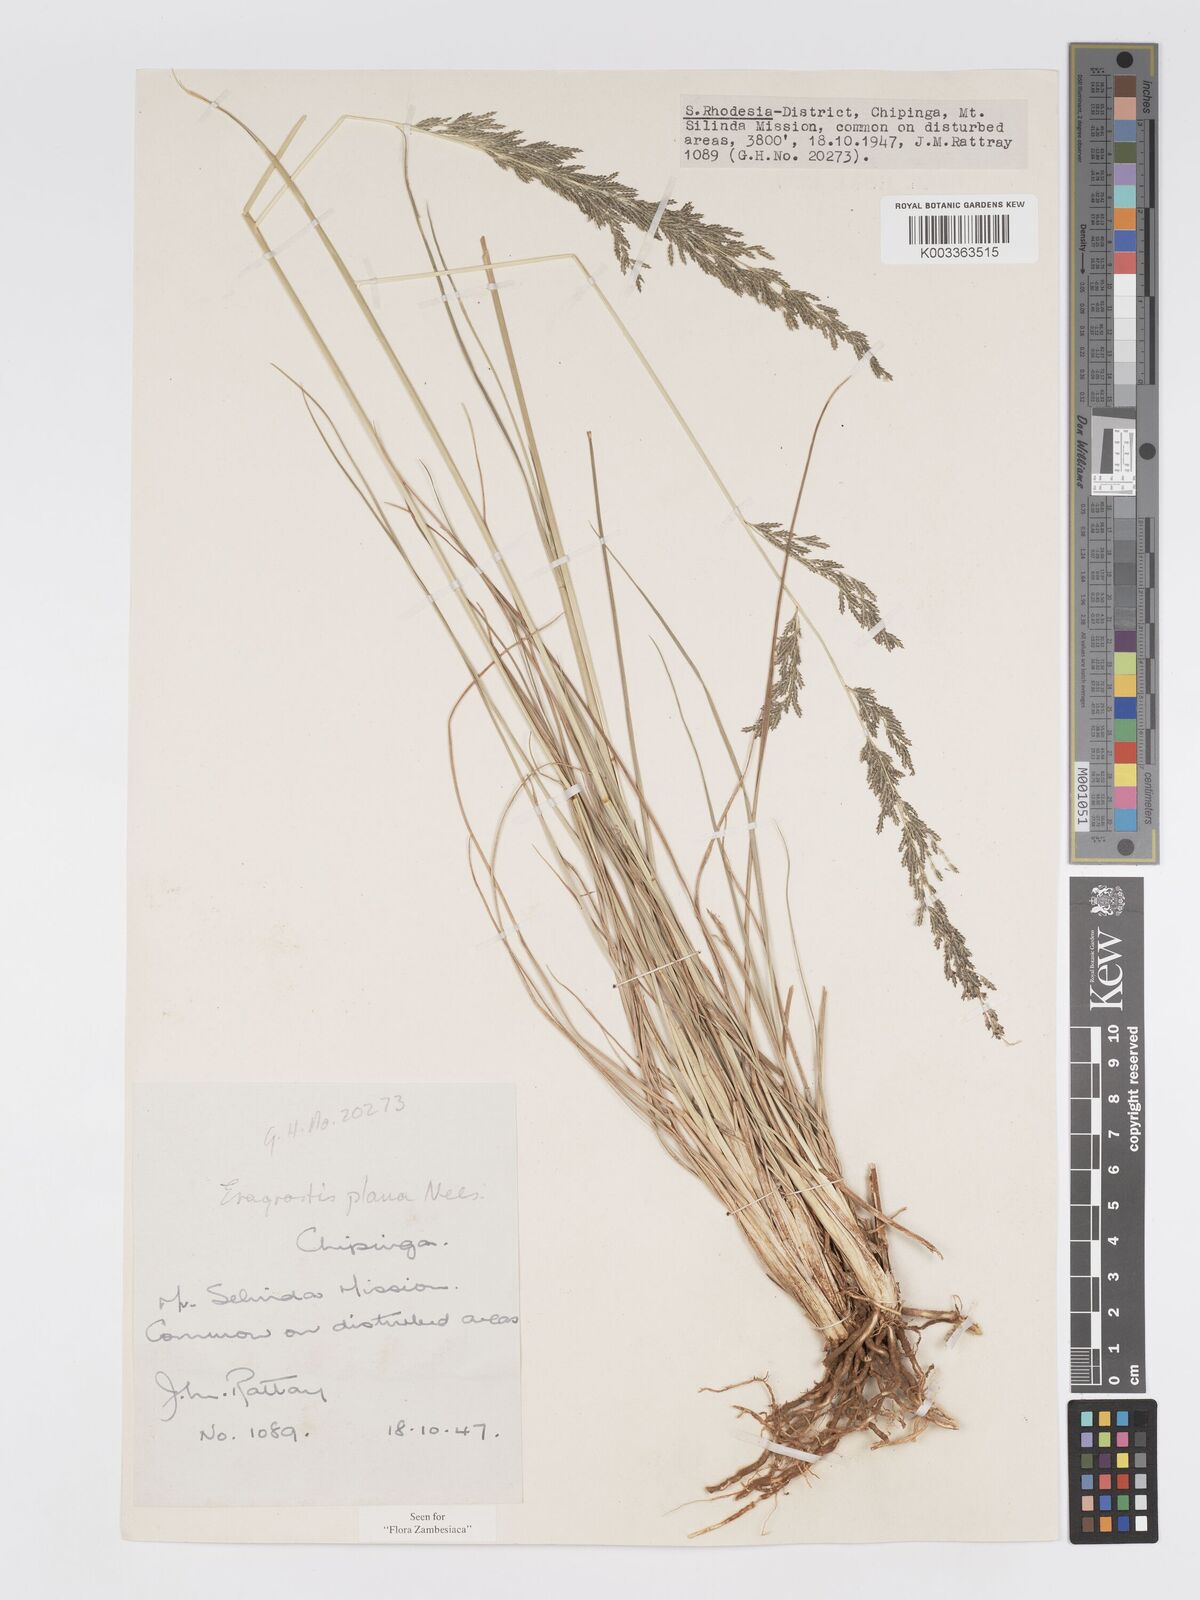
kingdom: Plantae
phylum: Tracheophyta
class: Liliopsida
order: Poales
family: Poaceae
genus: Eragrostis
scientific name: Eragrostis plana
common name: South african lovegrass
